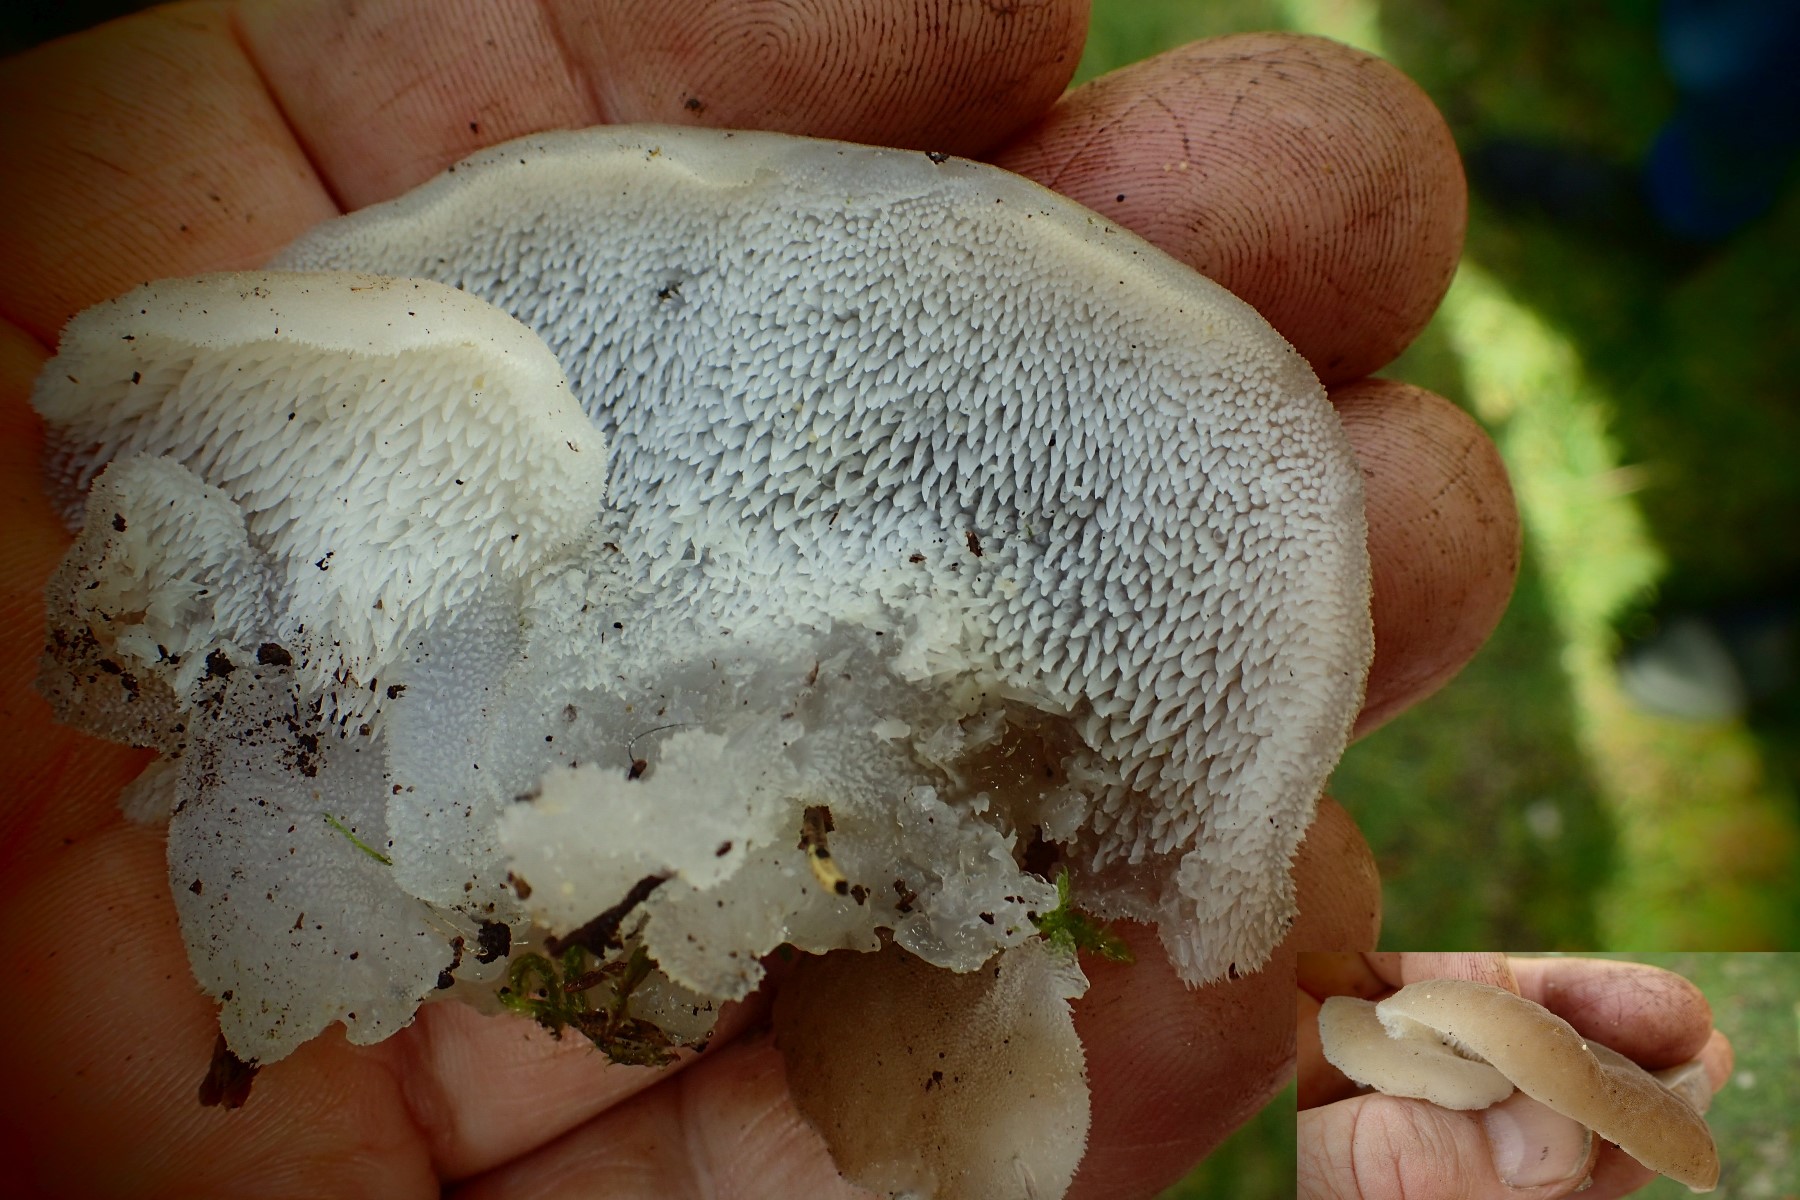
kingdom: Fungi
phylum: Basidiomycota
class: Agaricomycetes
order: Auriculariales
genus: Pseudohydnum
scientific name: Pseudohydnum gelatinosum
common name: bævretand
